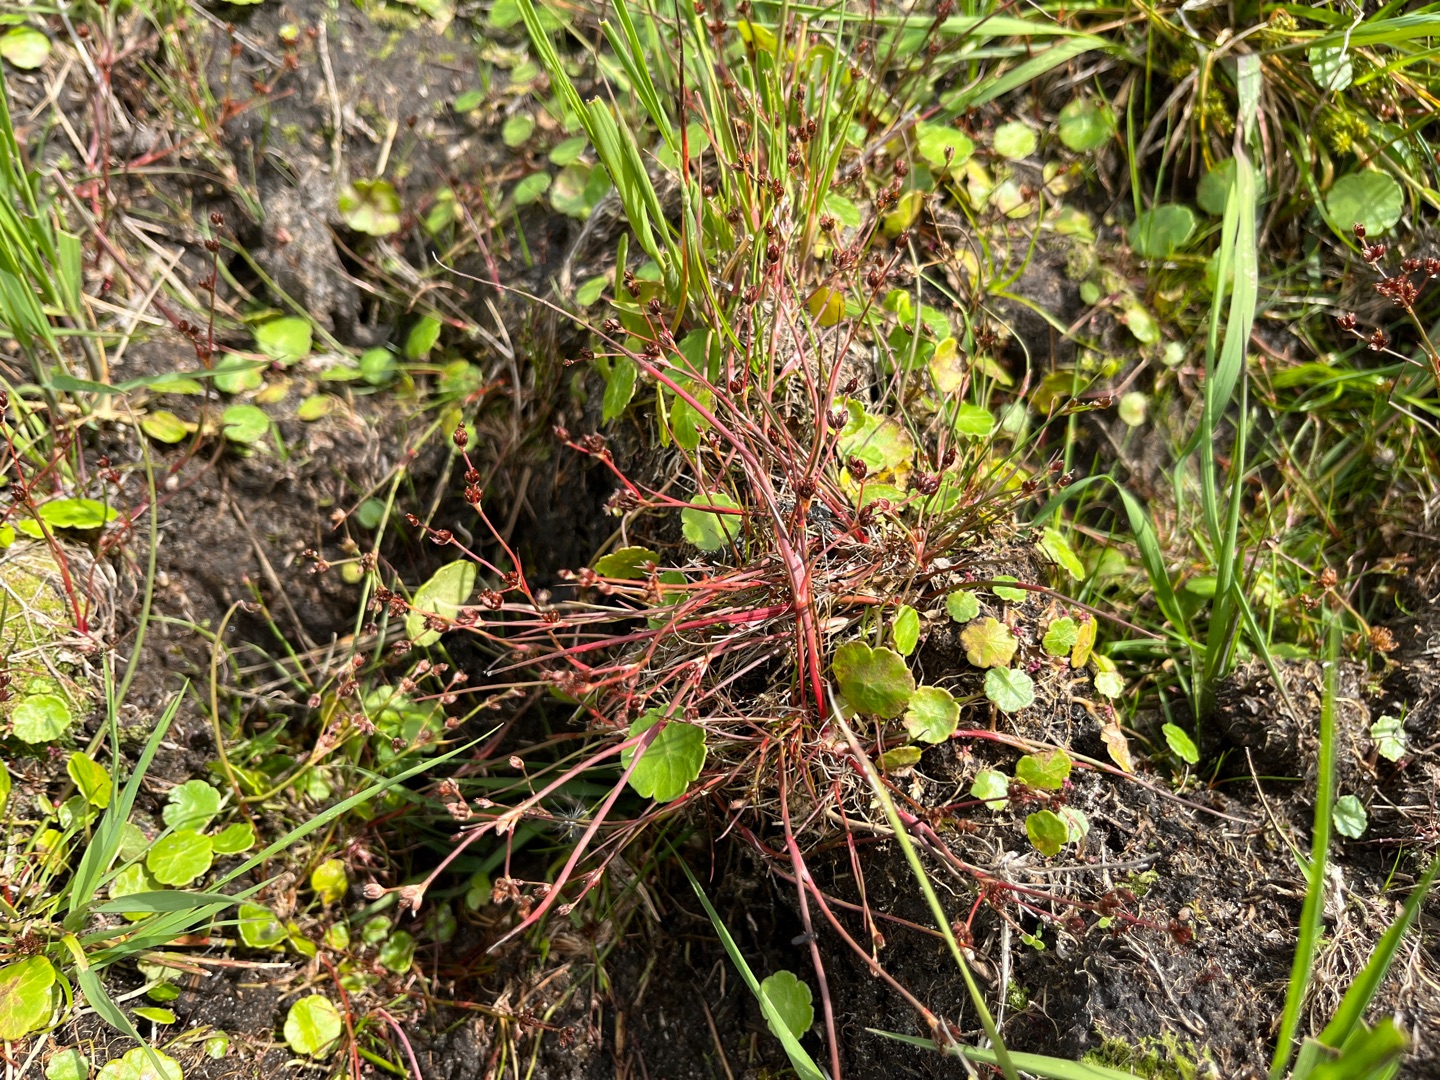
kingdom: Plantae
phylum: Tracheophyta
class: Liliopsida
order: Poales
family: Juncaceae
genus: Juncus
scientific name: Juncus bulbosus
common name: Liden siv
